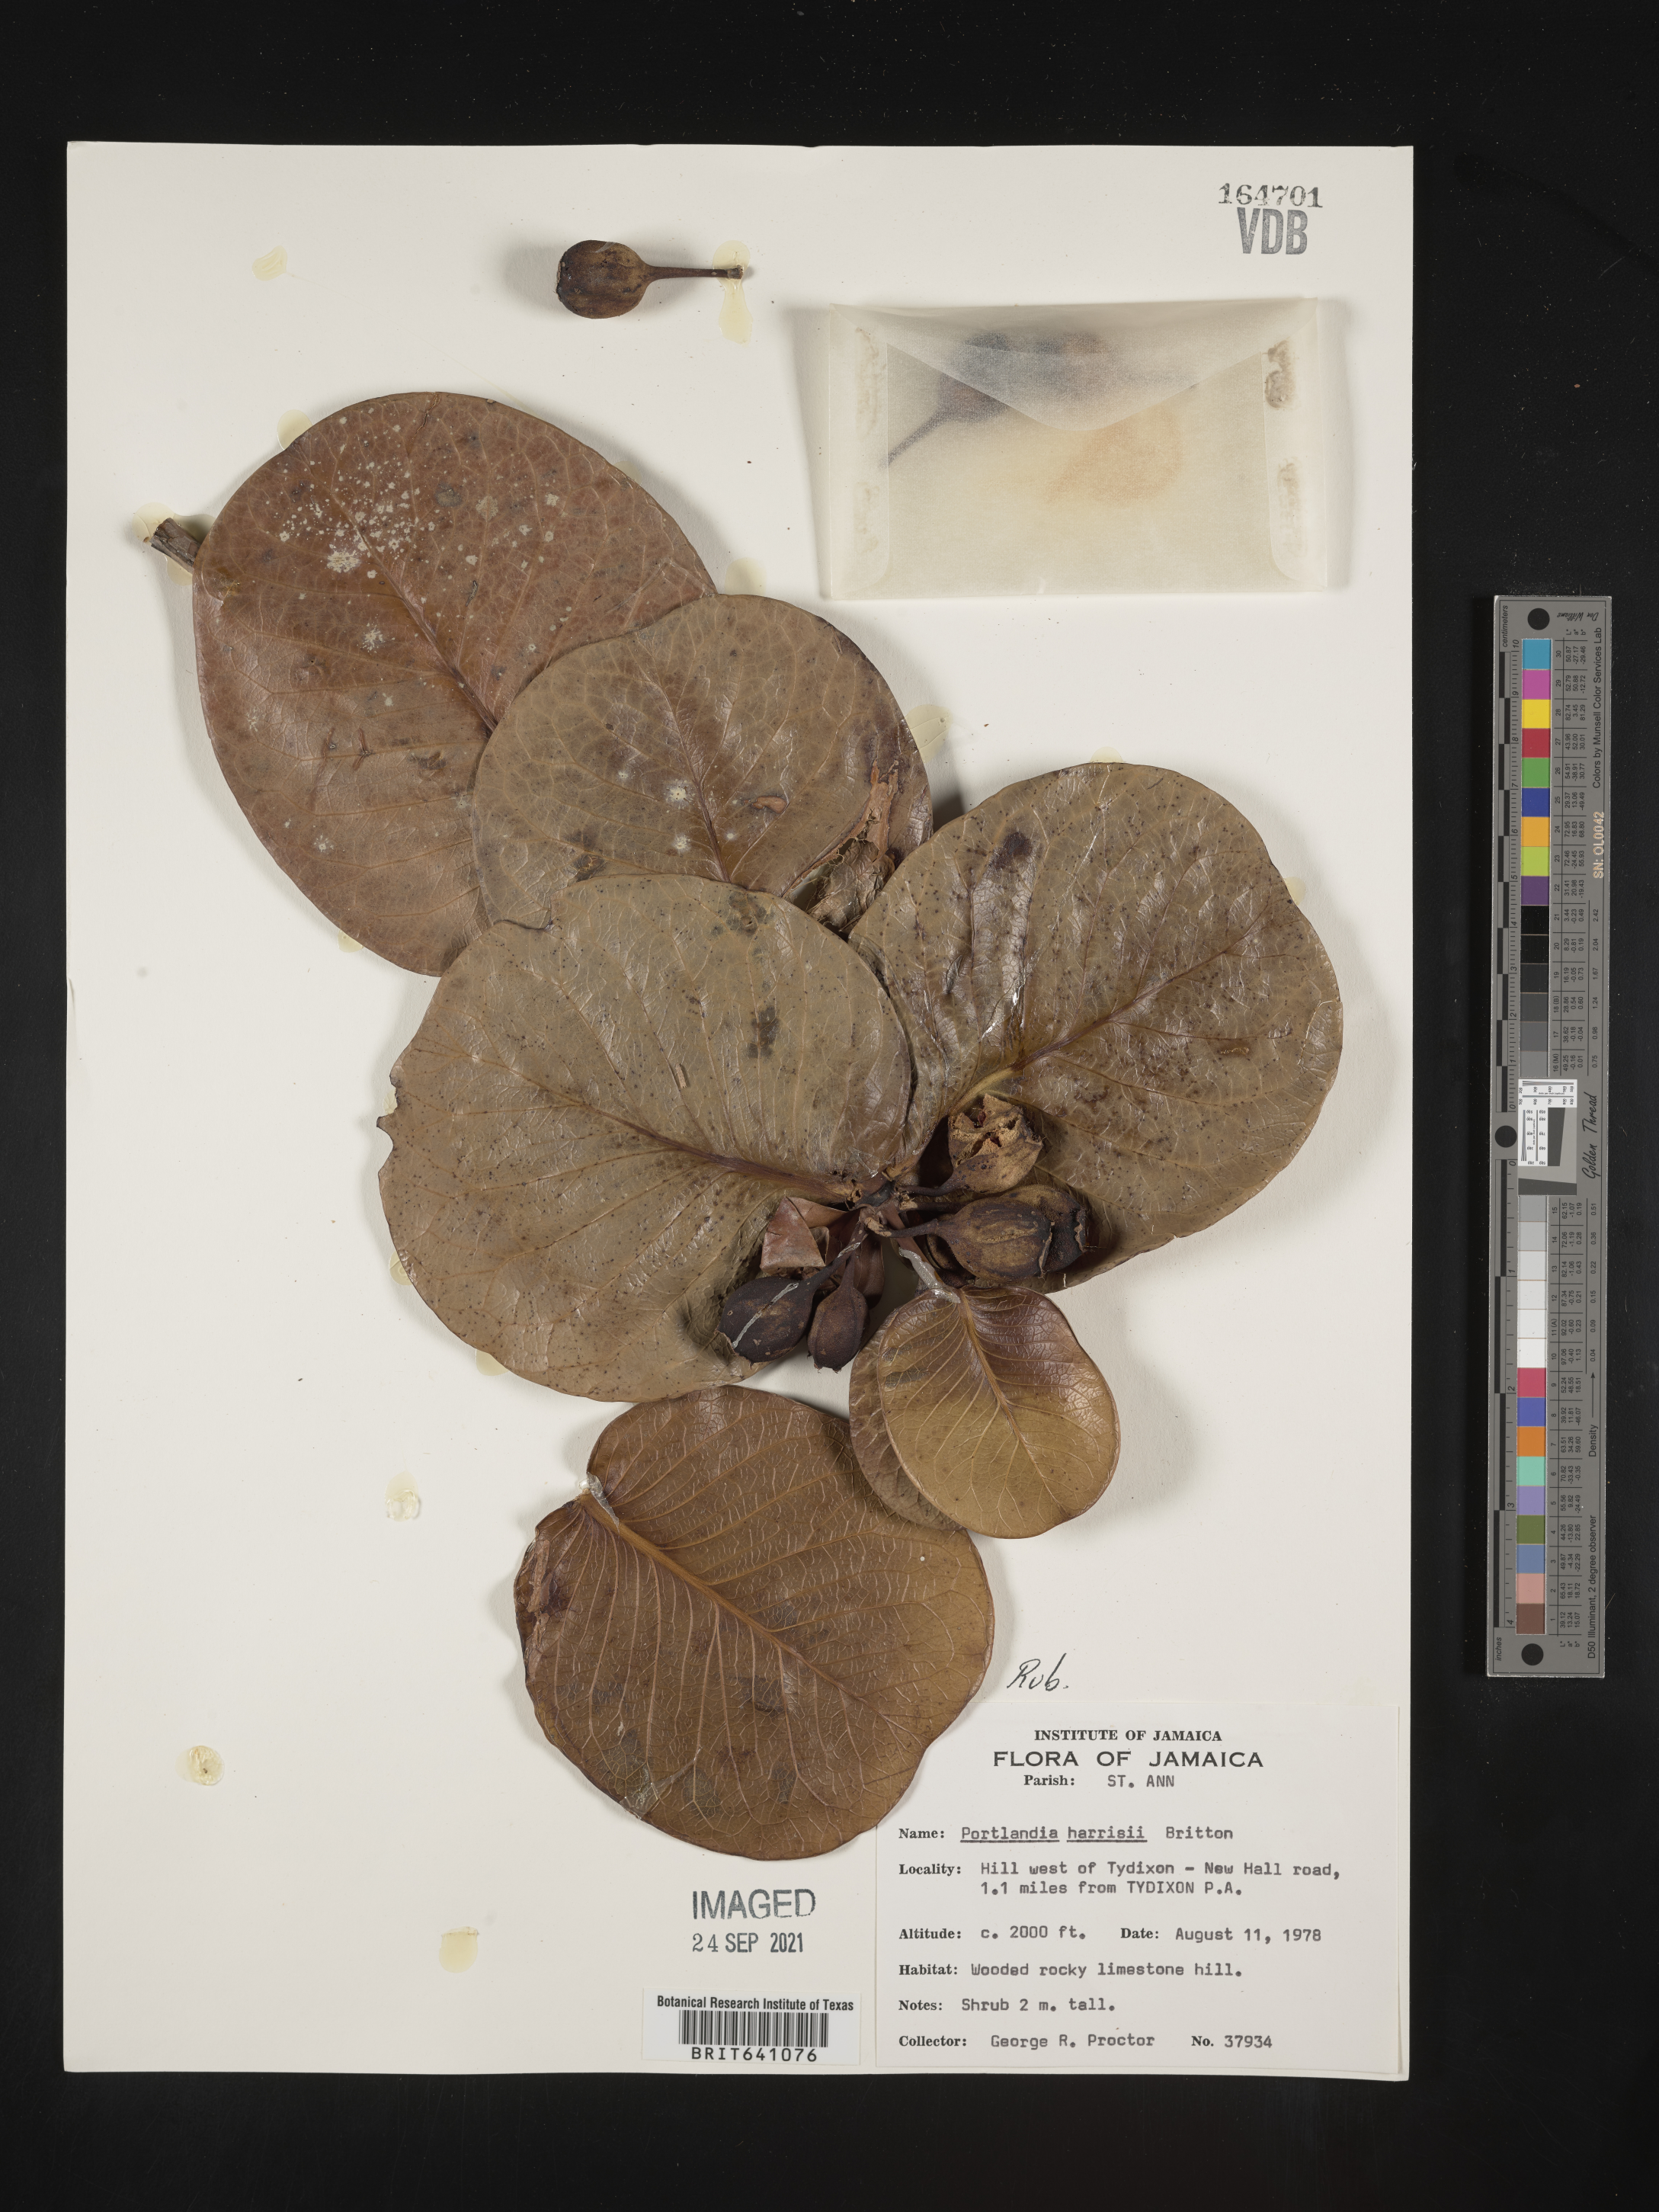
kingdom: Plantae
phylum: Tracheophyta
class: Magnoliopsida
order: Gentianales
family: Rubiaceae
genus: Portlandia
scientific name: Portlandia
